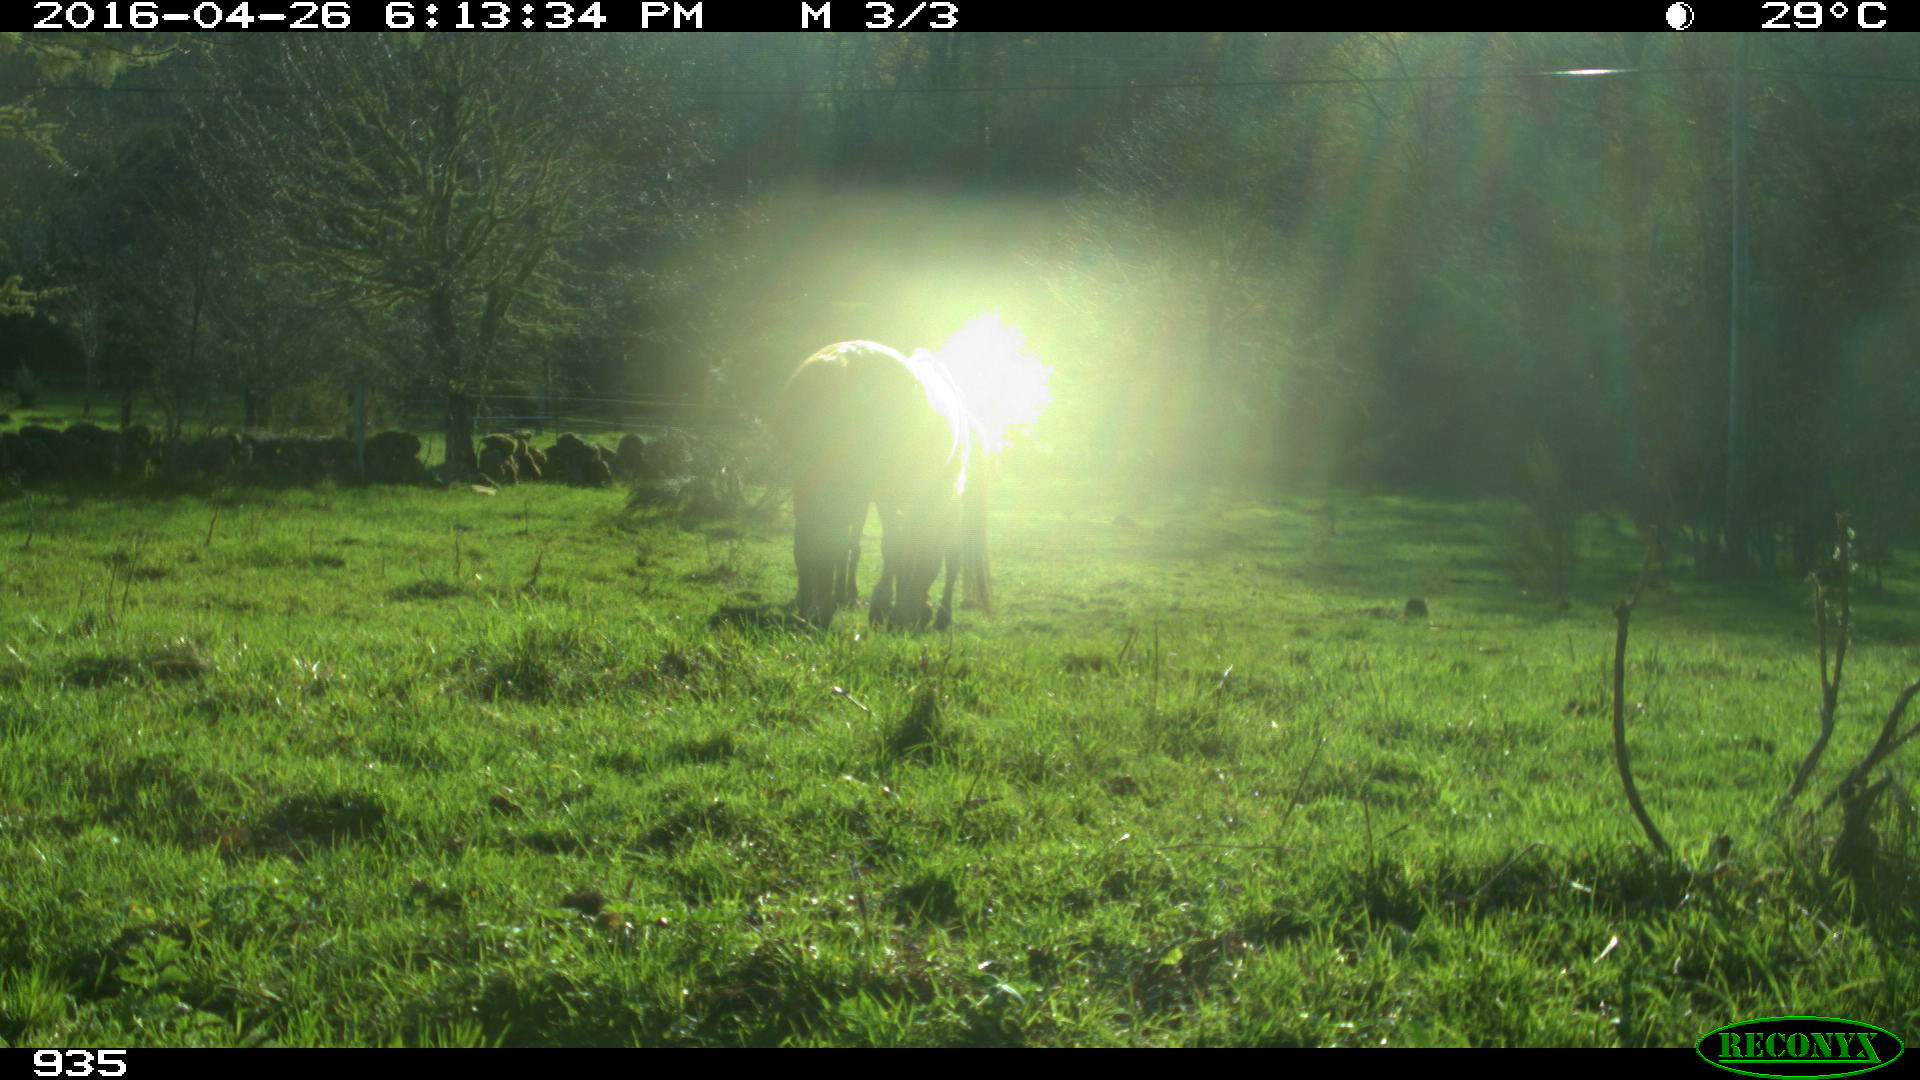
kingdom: Animalia
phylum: Chordata
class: Mammalia
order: Perissodactyla
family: Equidae
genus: Equus
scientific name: Equus caballus
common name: Horse
